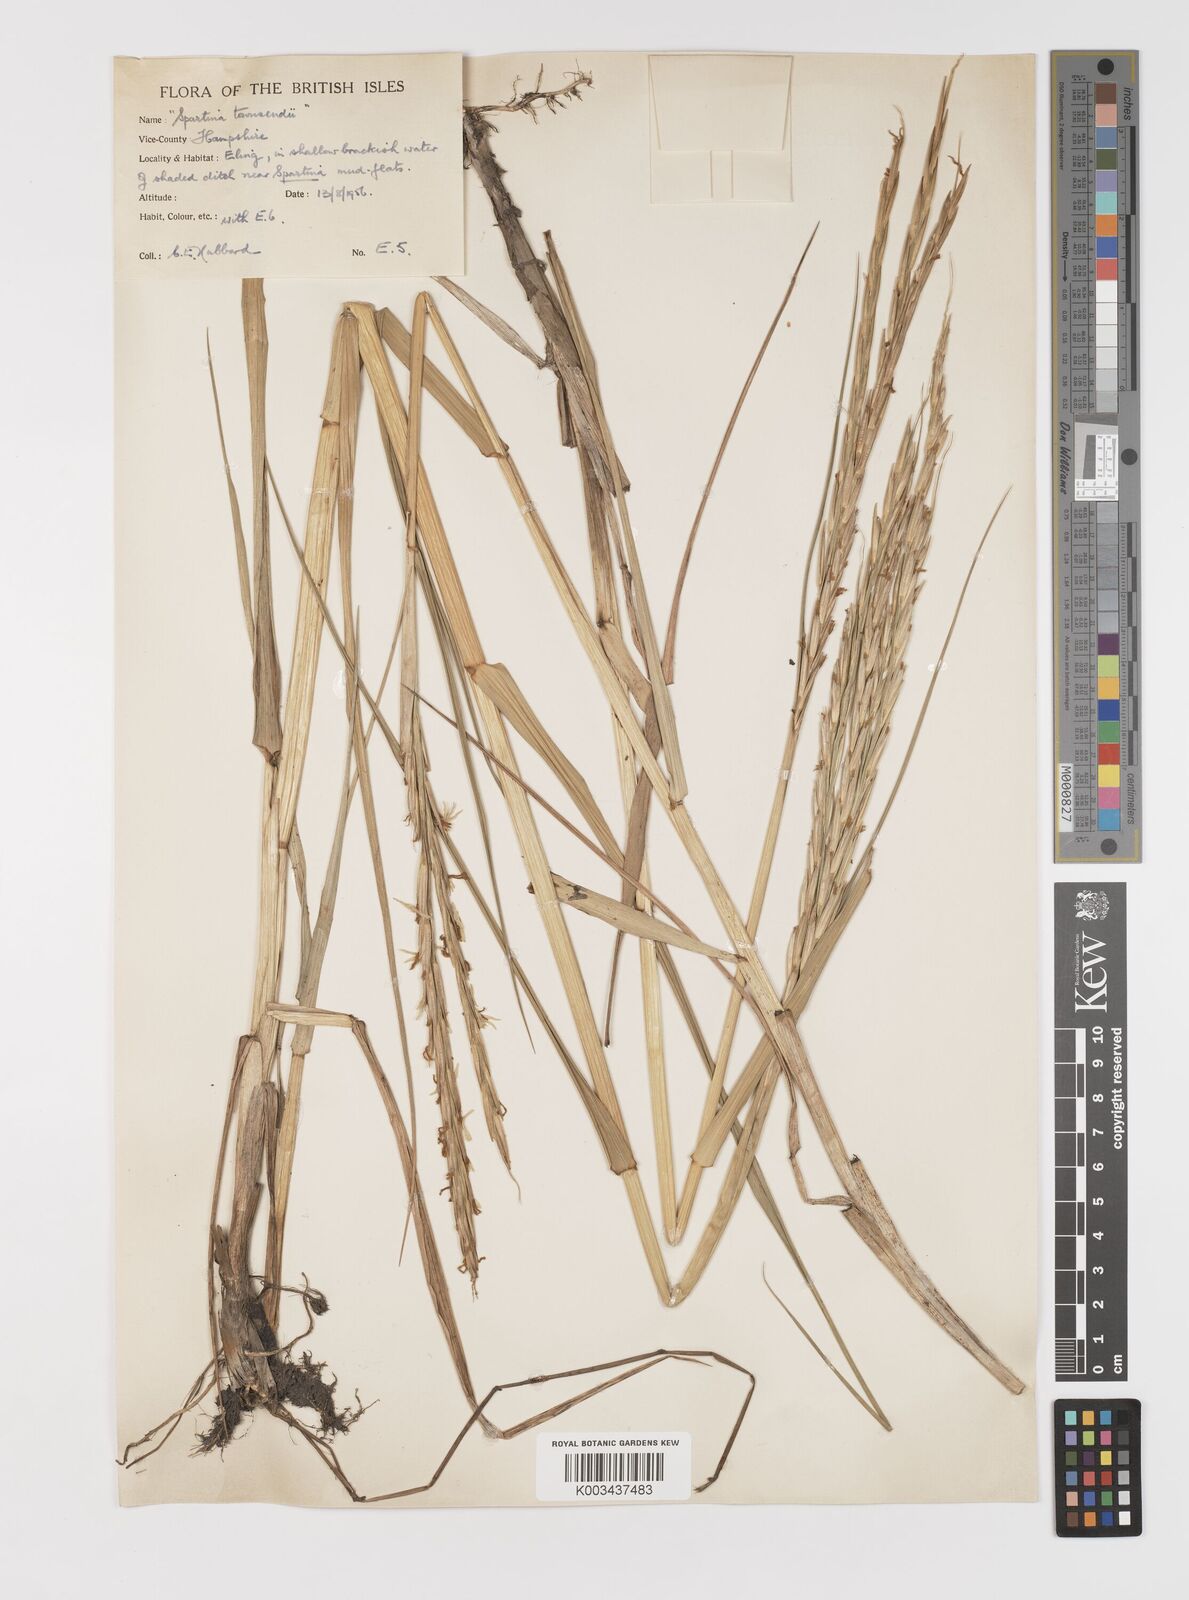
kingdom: Plantae
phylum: Tracheophyta
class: Liliopsida
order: Poales
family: Poaceae
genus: Sporobolus
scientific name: Sporobolus anglicus
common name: English cordgrass
